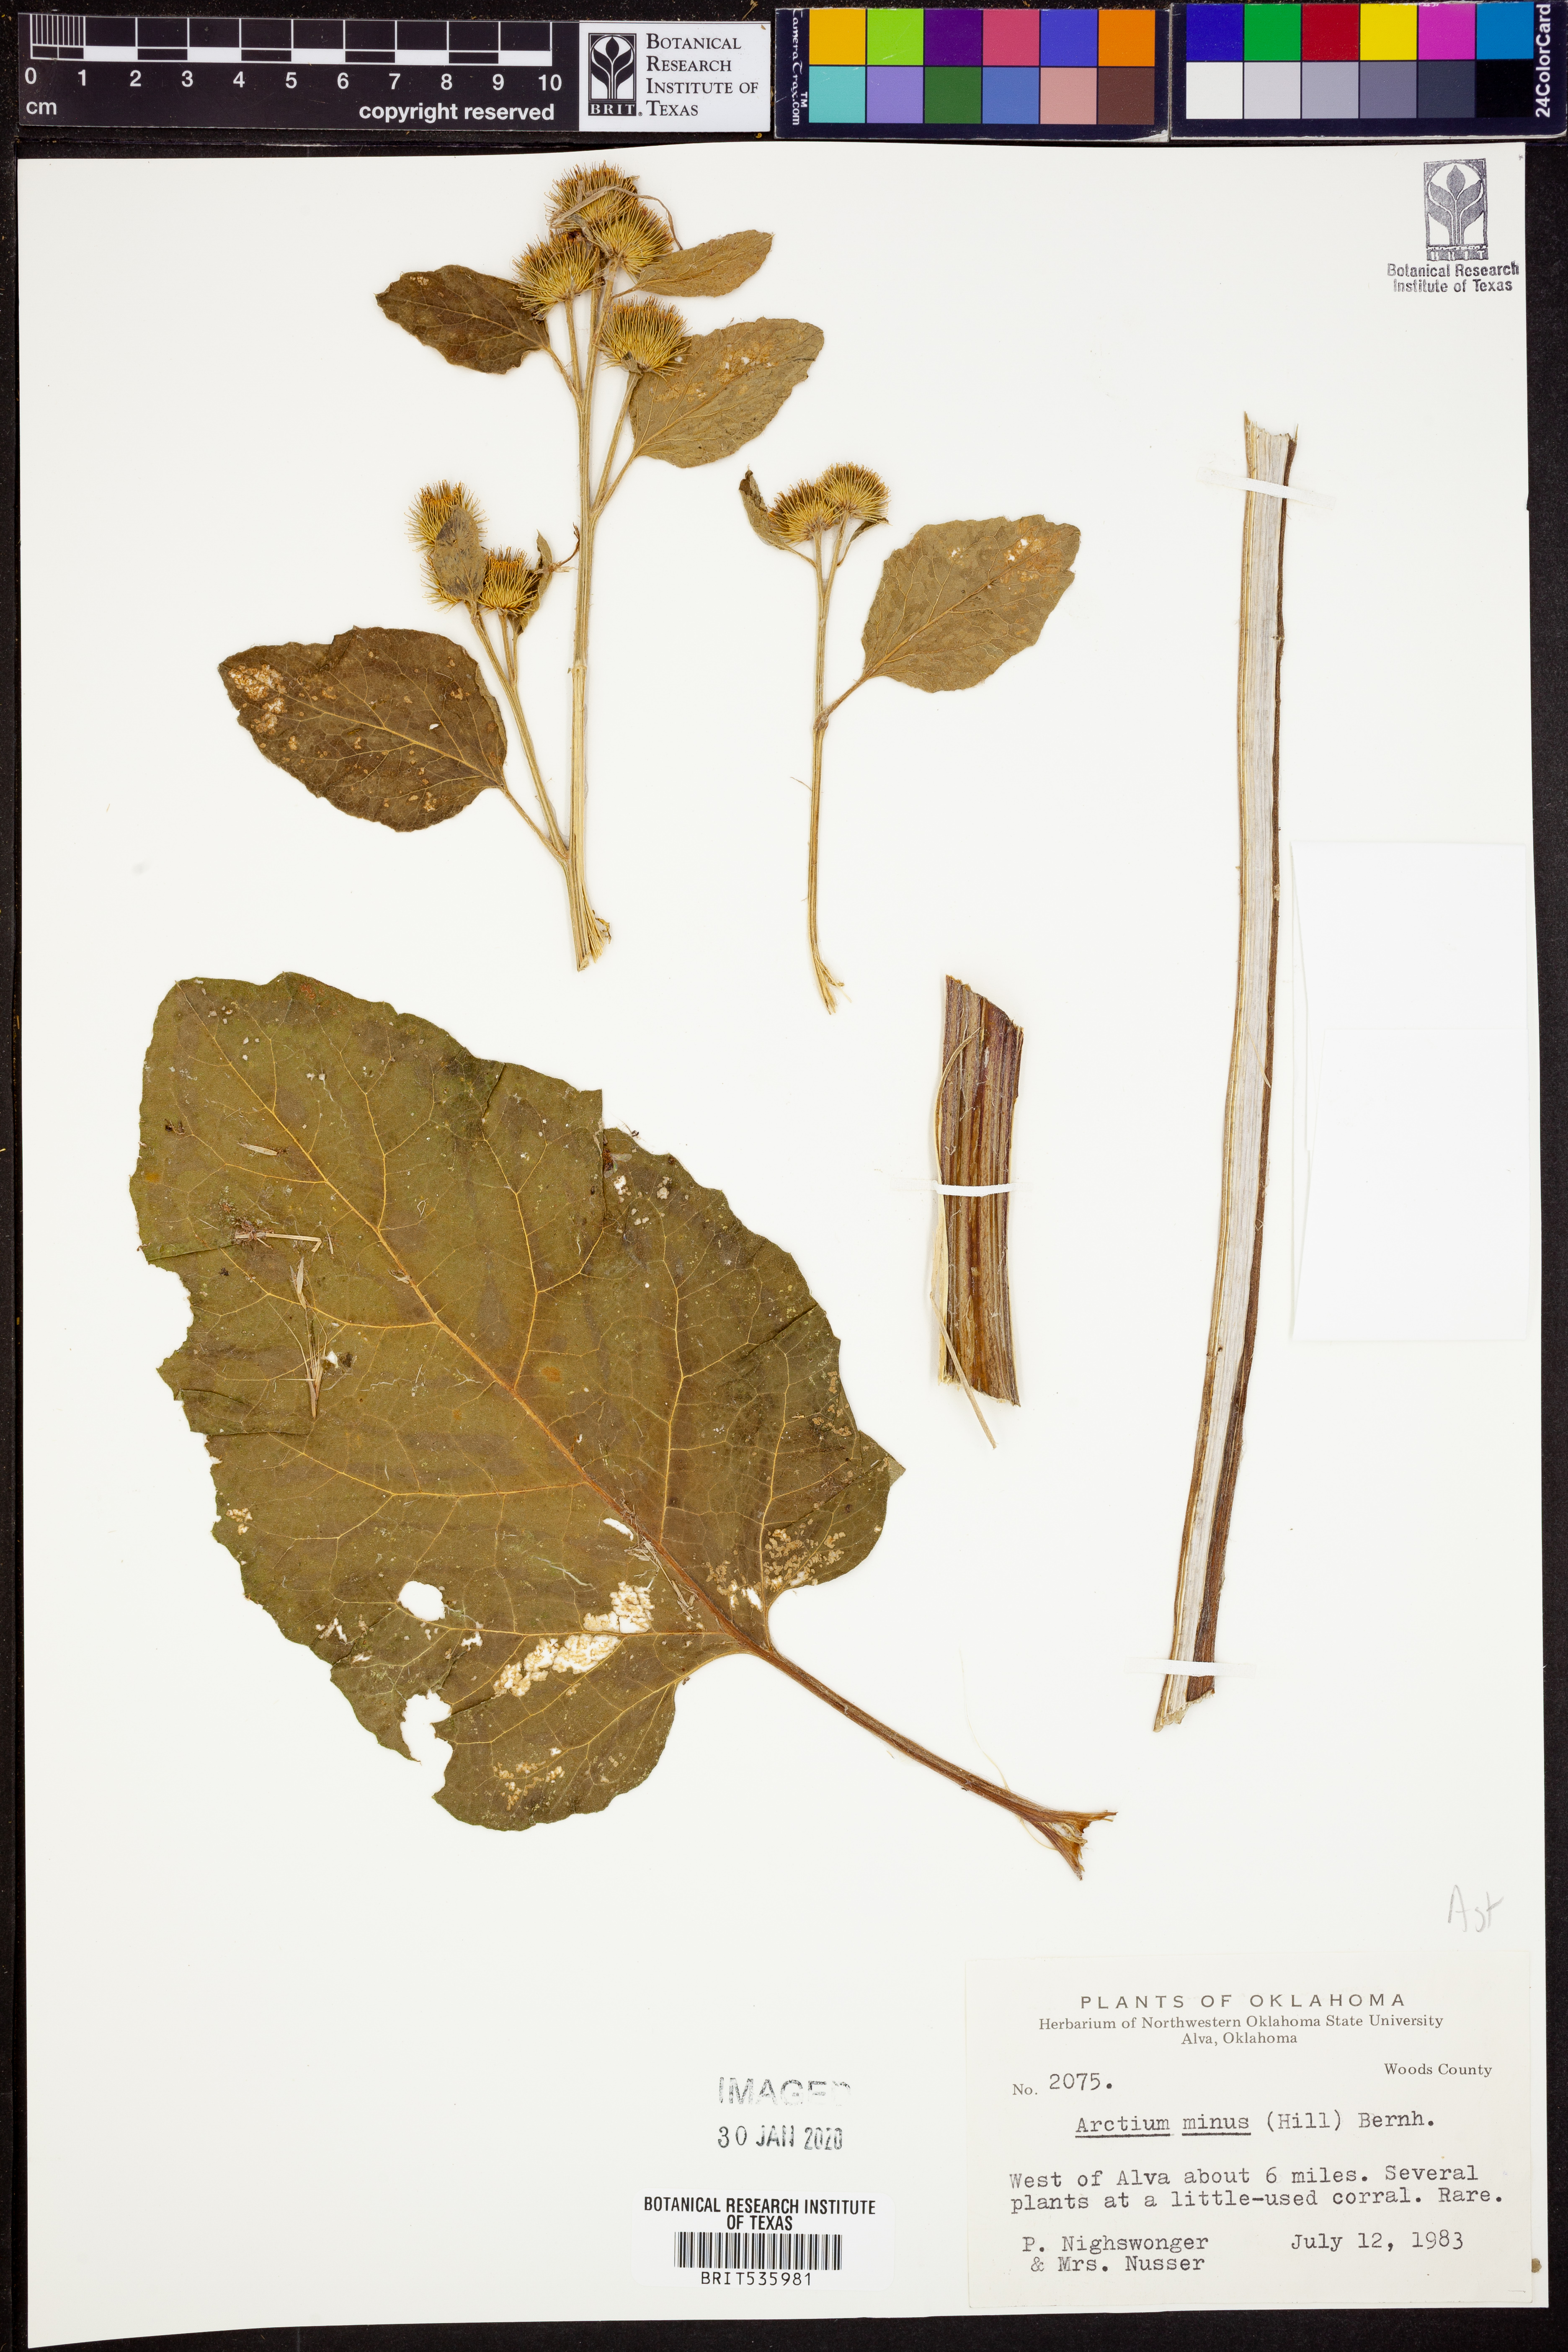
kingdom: Plantae
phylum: Tracheophyta
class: Magnoliopsida
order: Asterales
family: Asteraceae
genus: Arctium
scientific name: Arctium minus
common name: Lesser burdock
